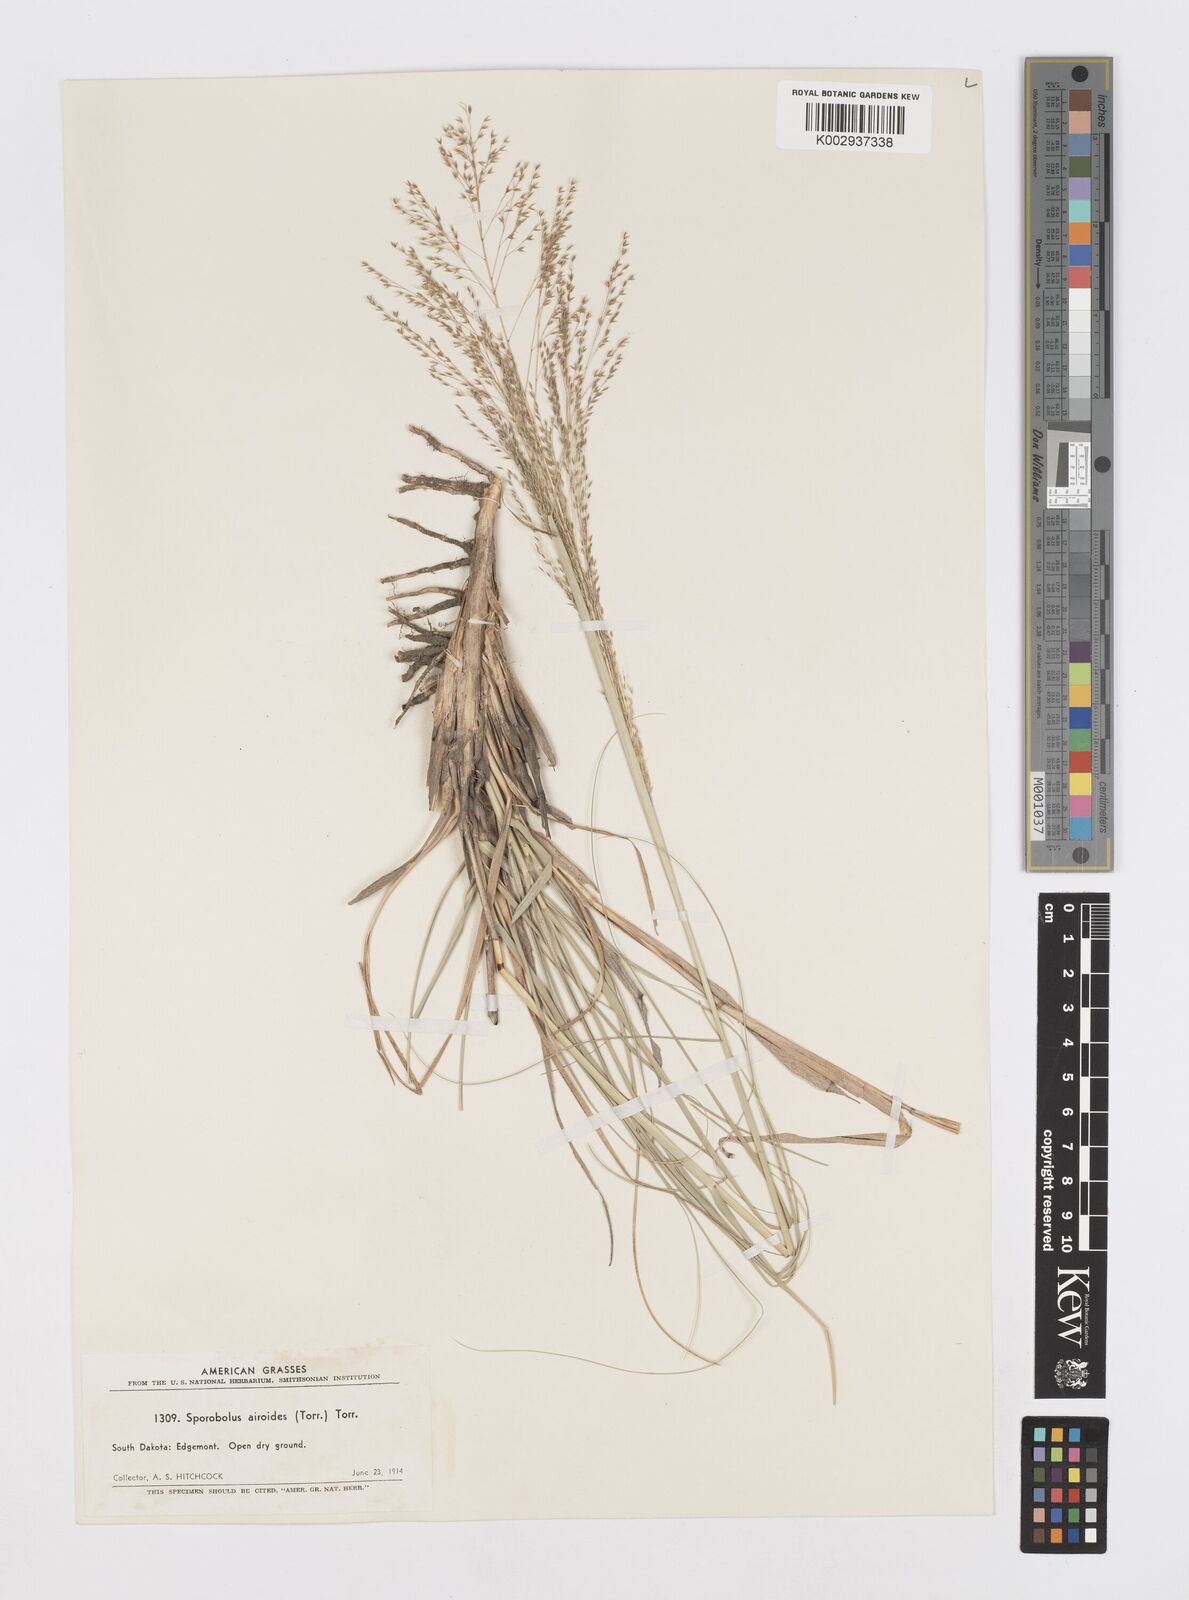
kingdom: Plantae
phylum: Tracheophyta
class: Liliopsida
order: Poales
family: Poaceae
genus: Sporobolus
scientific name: Sporobolus airoides
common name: Alkali sacaton
